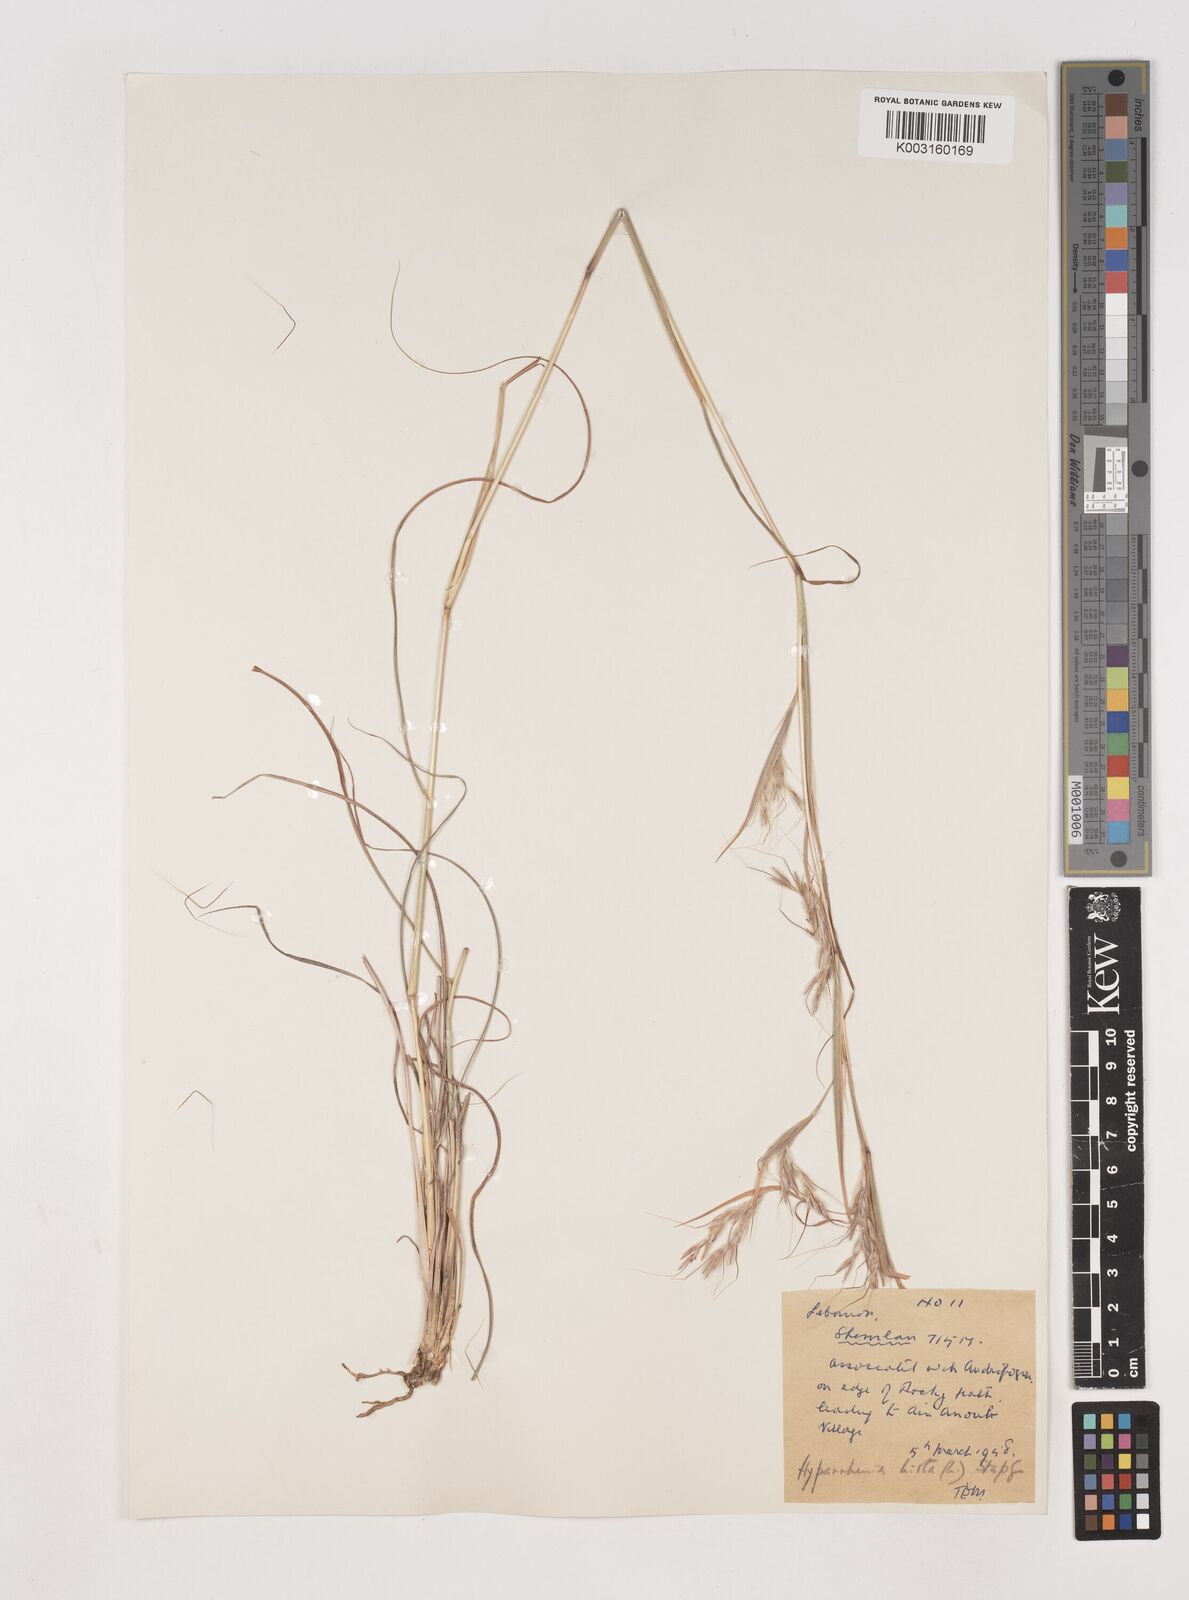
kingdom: Plantae
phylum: Tracheophyta
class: Liliopsida
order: Poales
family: Poaceae
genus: Hyparrhenia
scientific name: Hyparrhenia hirta
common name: Thatching grass
